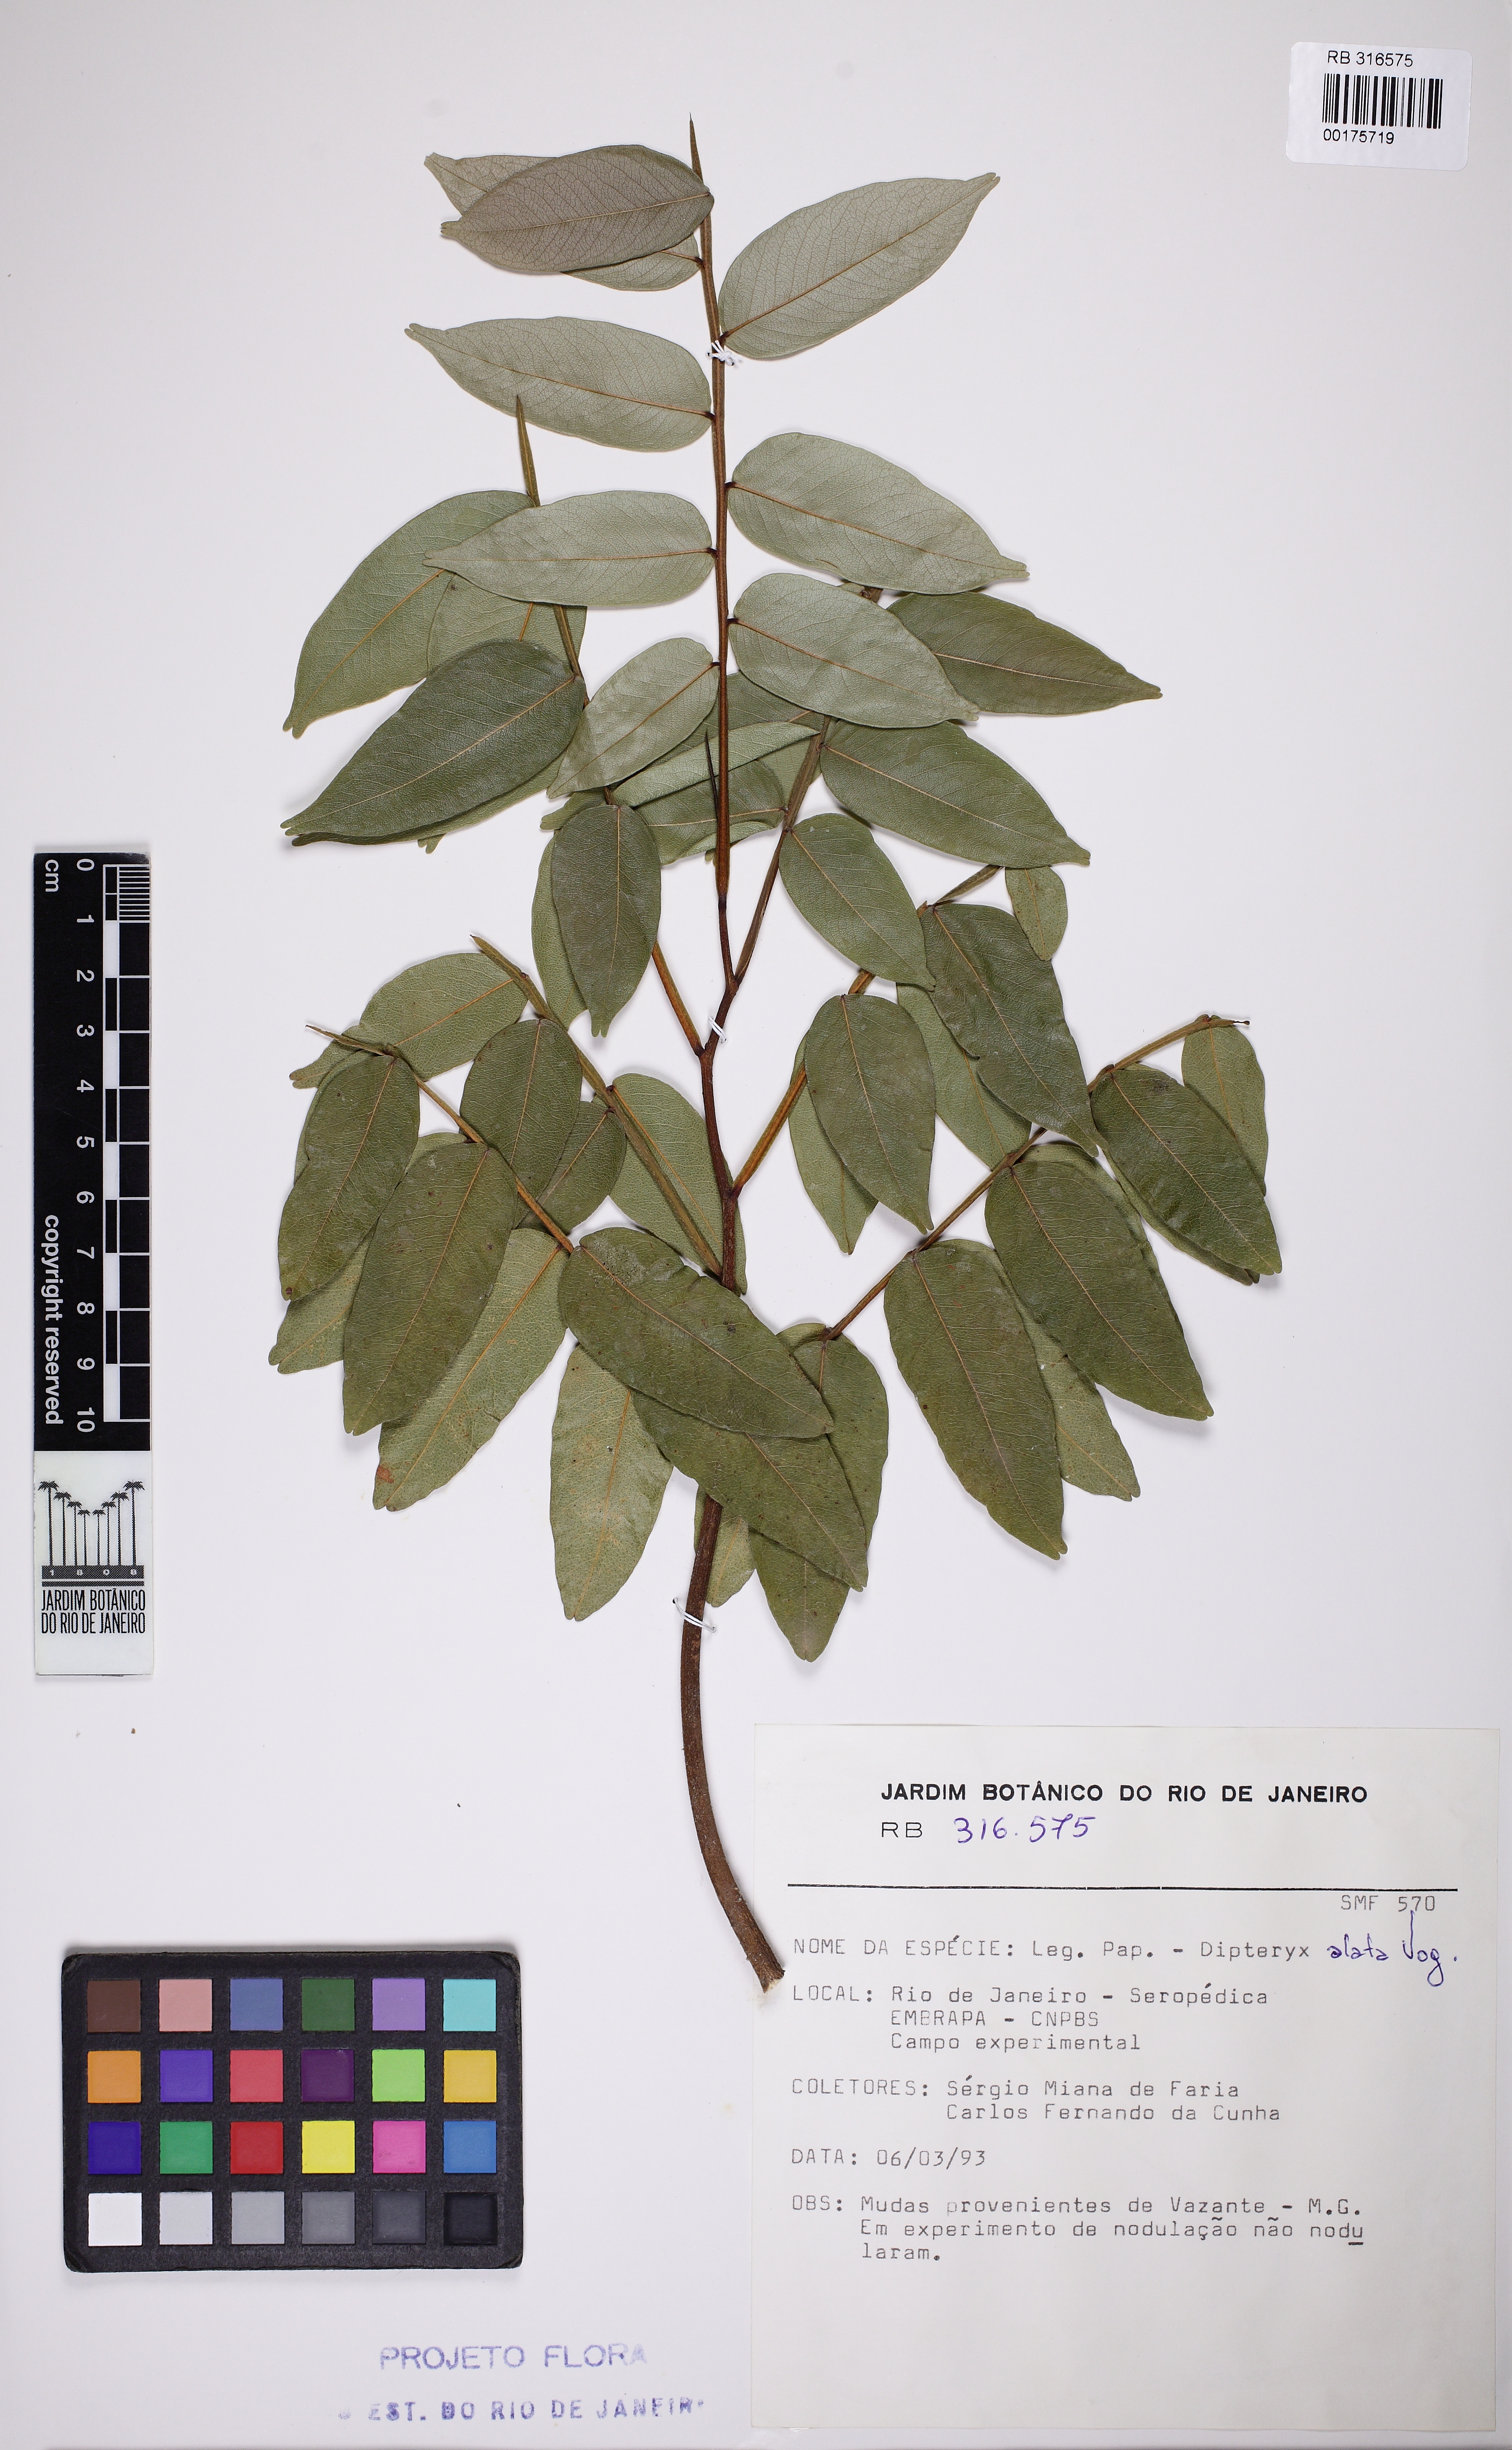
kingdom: Plantae
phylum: Tracheophyta
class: Magnoliopsida
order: Fabales
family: Fabaceae
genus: Dipteryx
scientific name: Dipteryx alata
